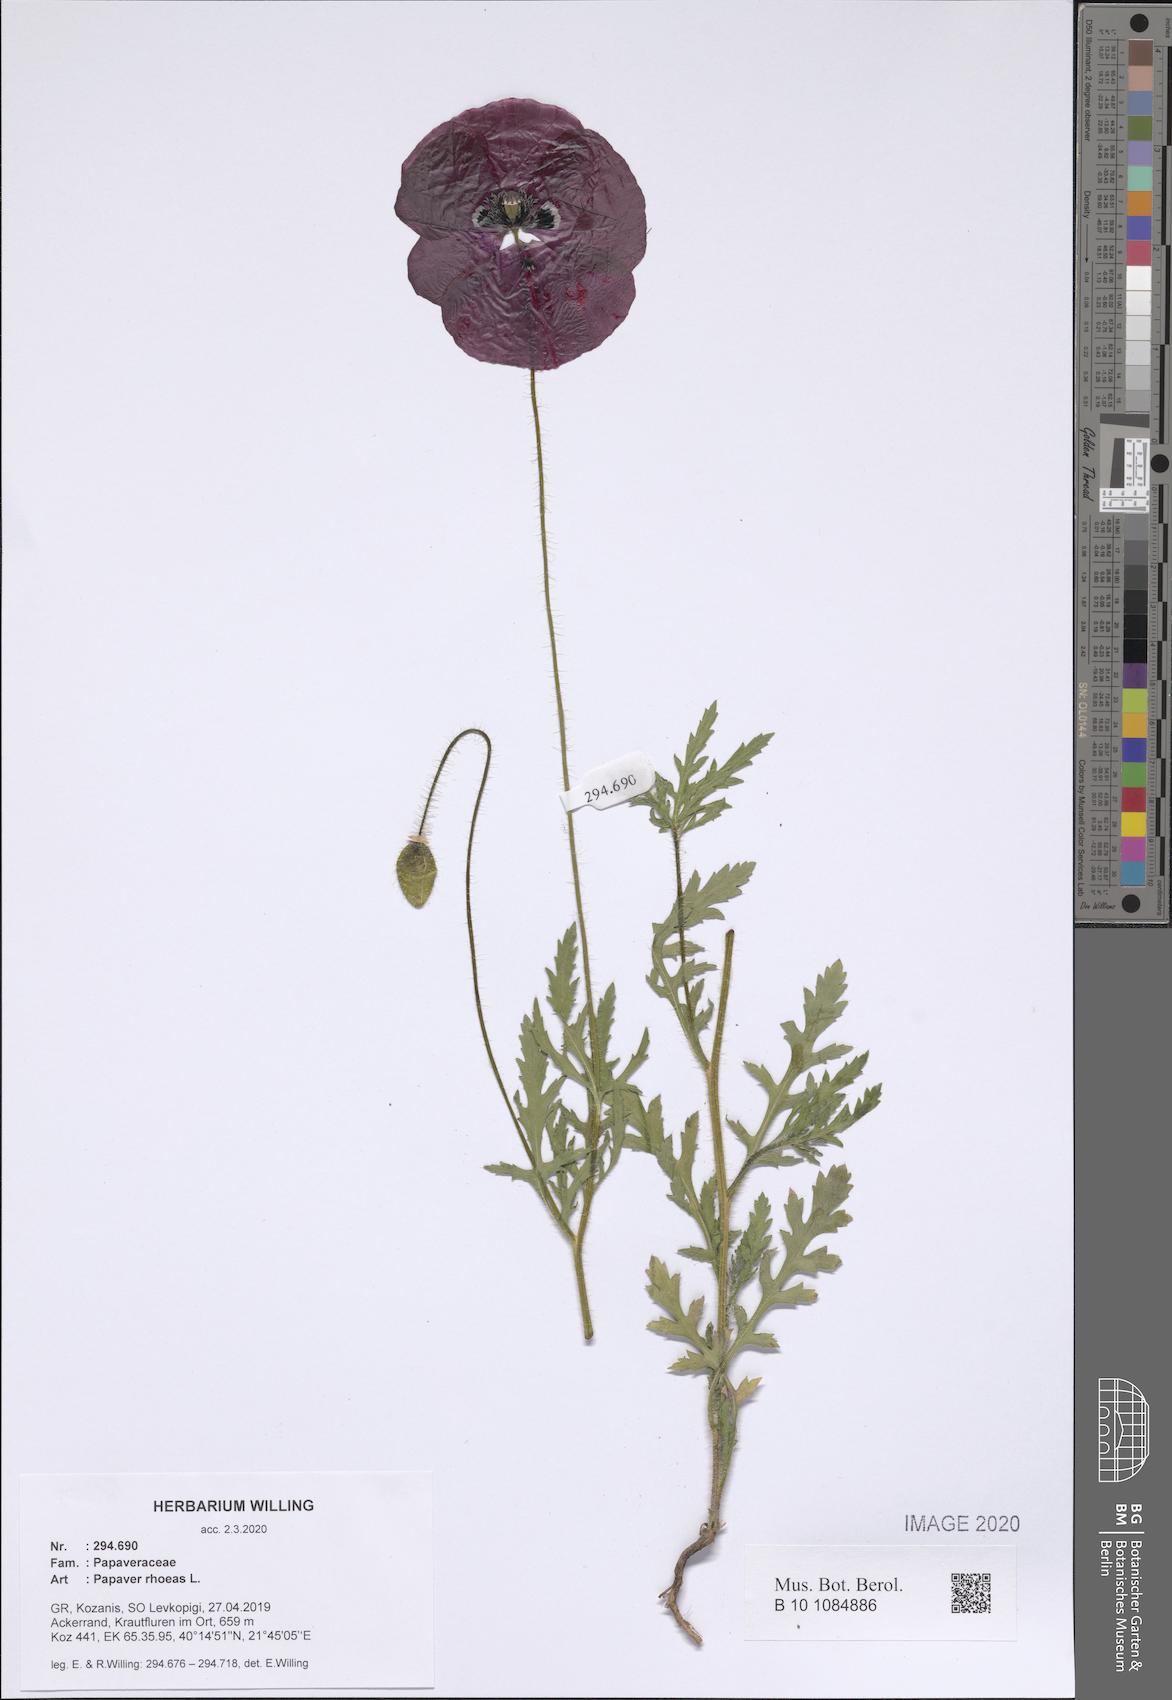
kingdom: Plantae
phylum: Tracheophyta
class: Magnoliopsida
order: Ranunculales
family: Papaveraceae
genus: Papaver
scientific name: Papaver rhoeas
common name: Corn poppy
